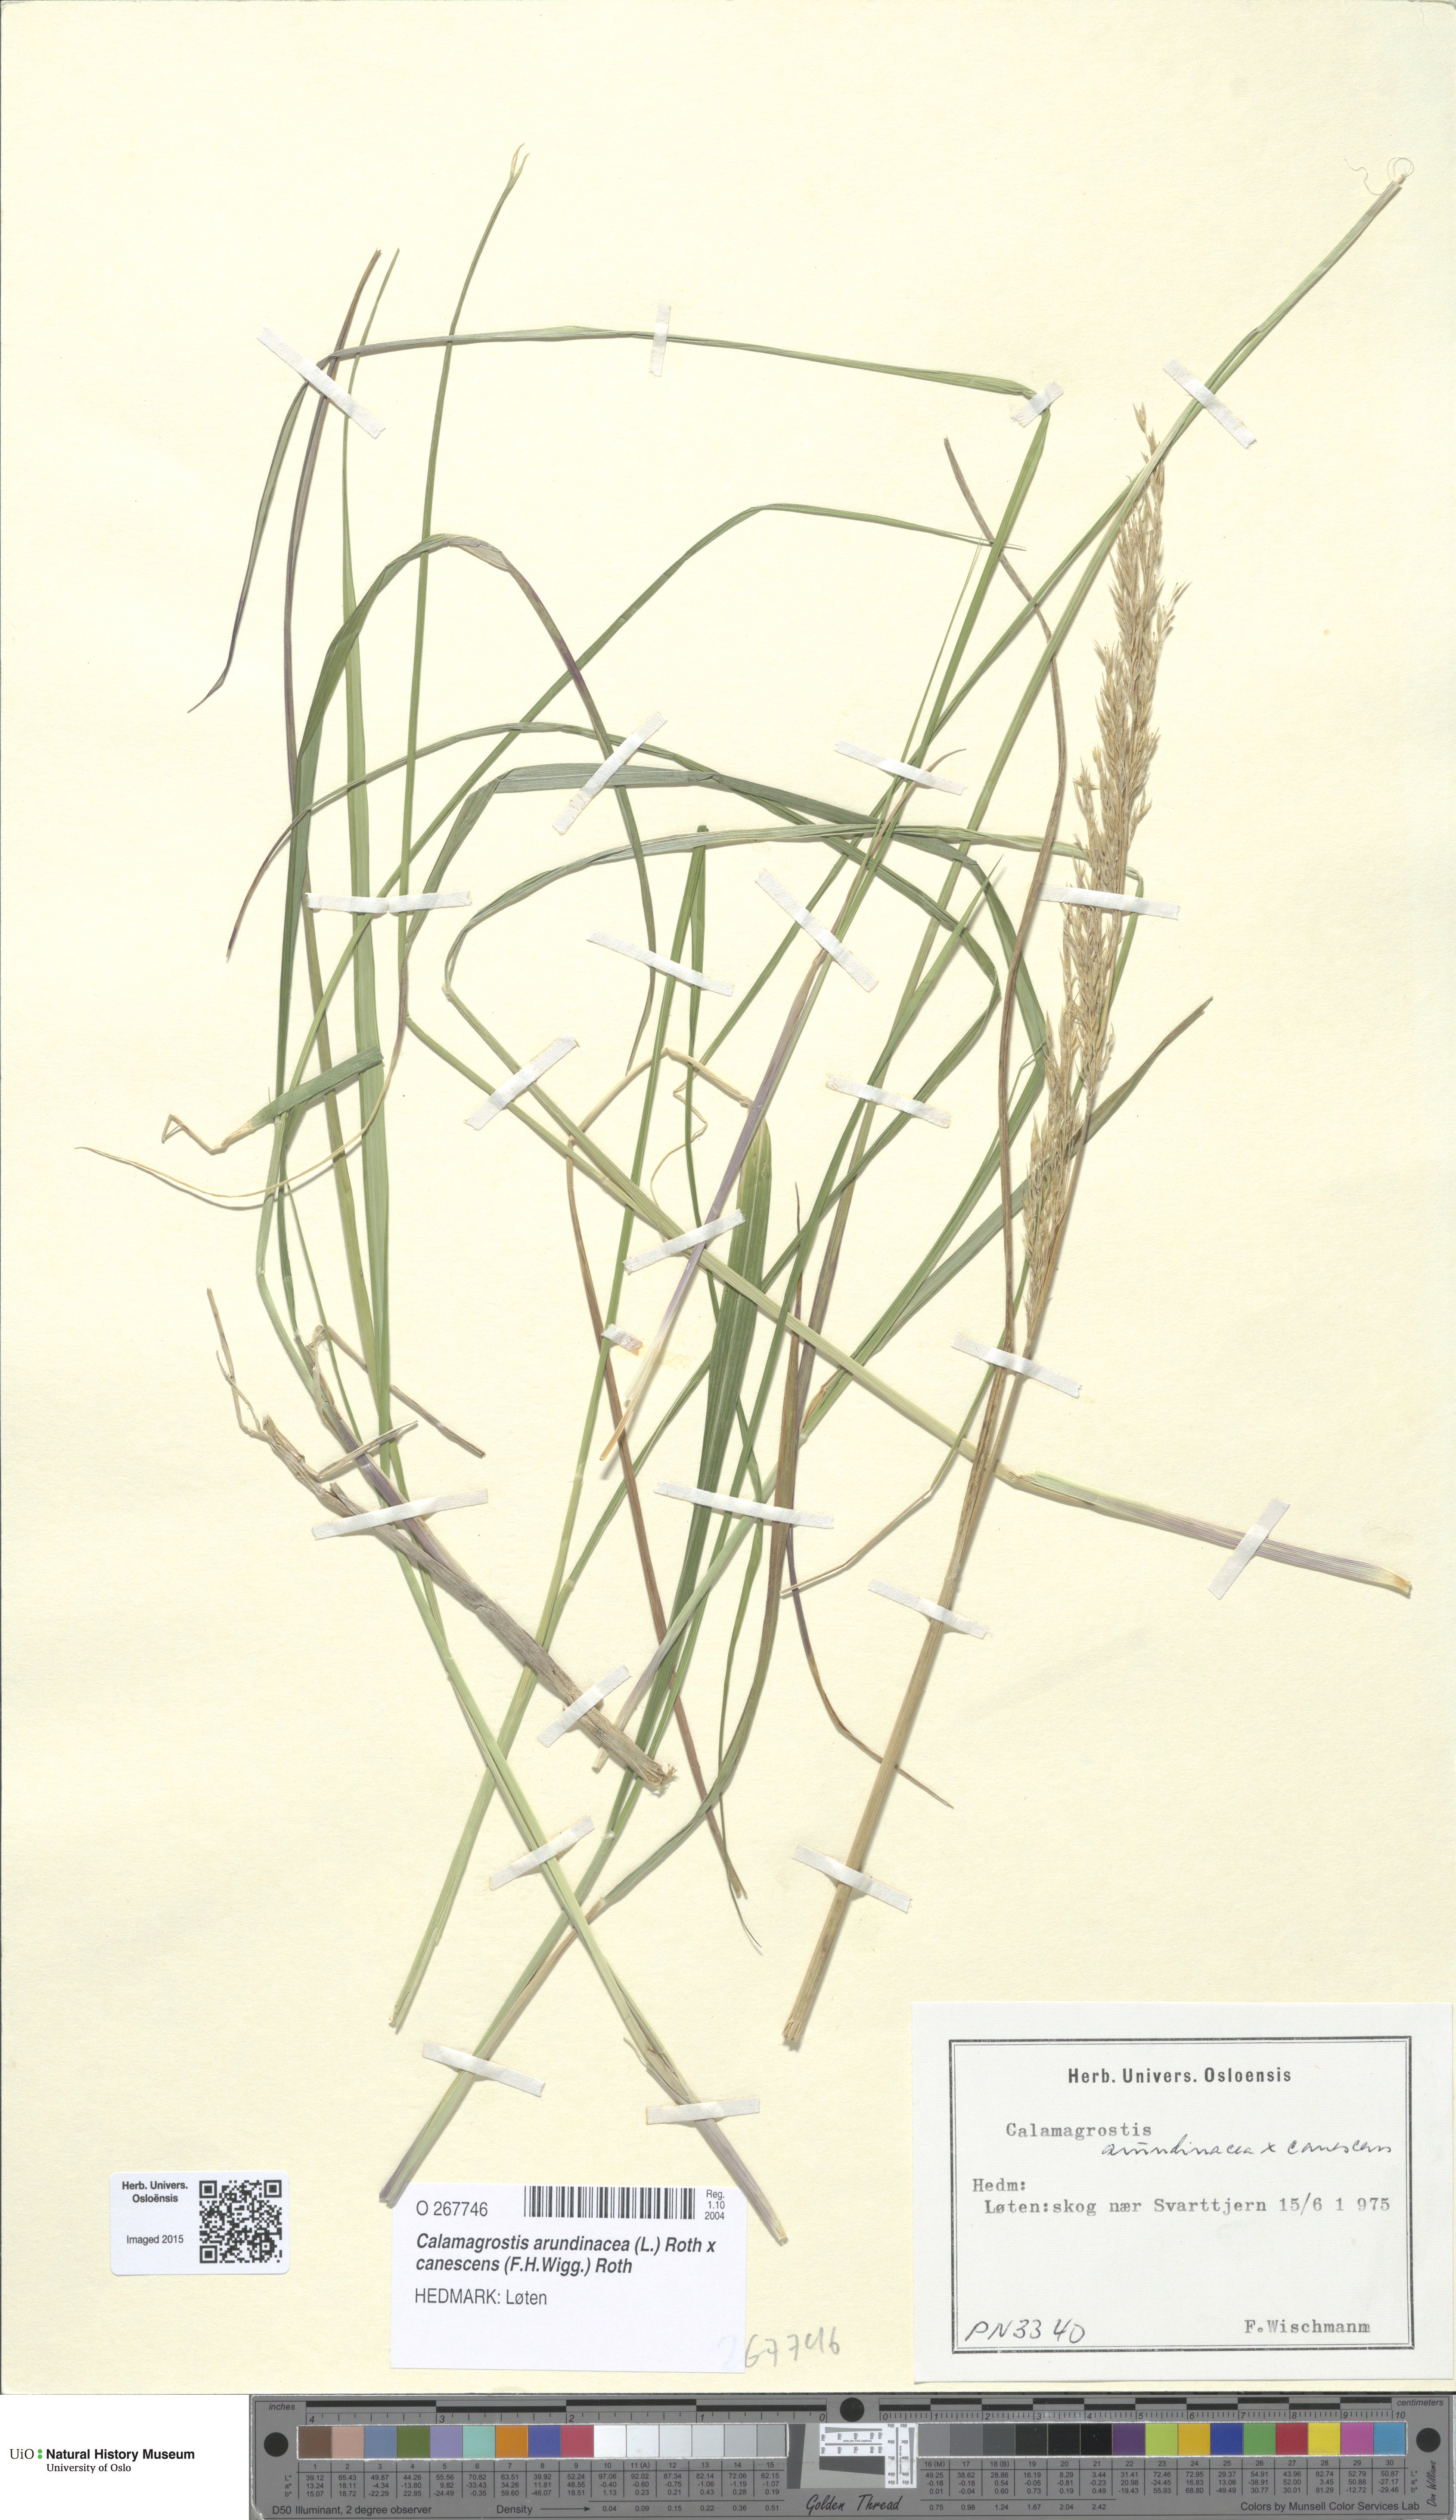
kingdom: Plantae
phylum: Tracheophyta
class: Liliopsida
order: Poales
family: Poaceae
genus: Calamagrostis
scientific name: Calamagrostis
